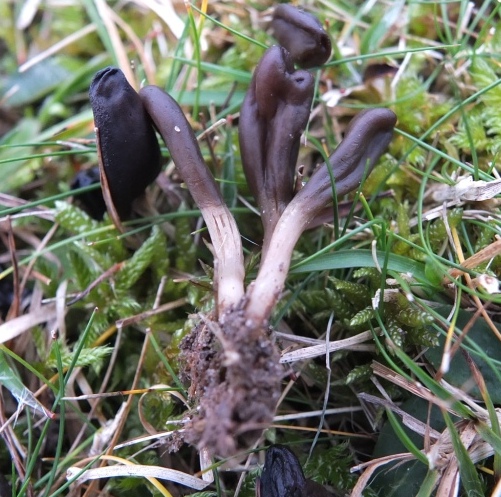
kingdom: Fungi
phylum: Ascomycota
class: Leotiomycetes
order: Leotiales
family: Leotiaceae
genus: Microglossum
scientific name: Microglossum olivaceum
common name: olivenbrun farvetunge
